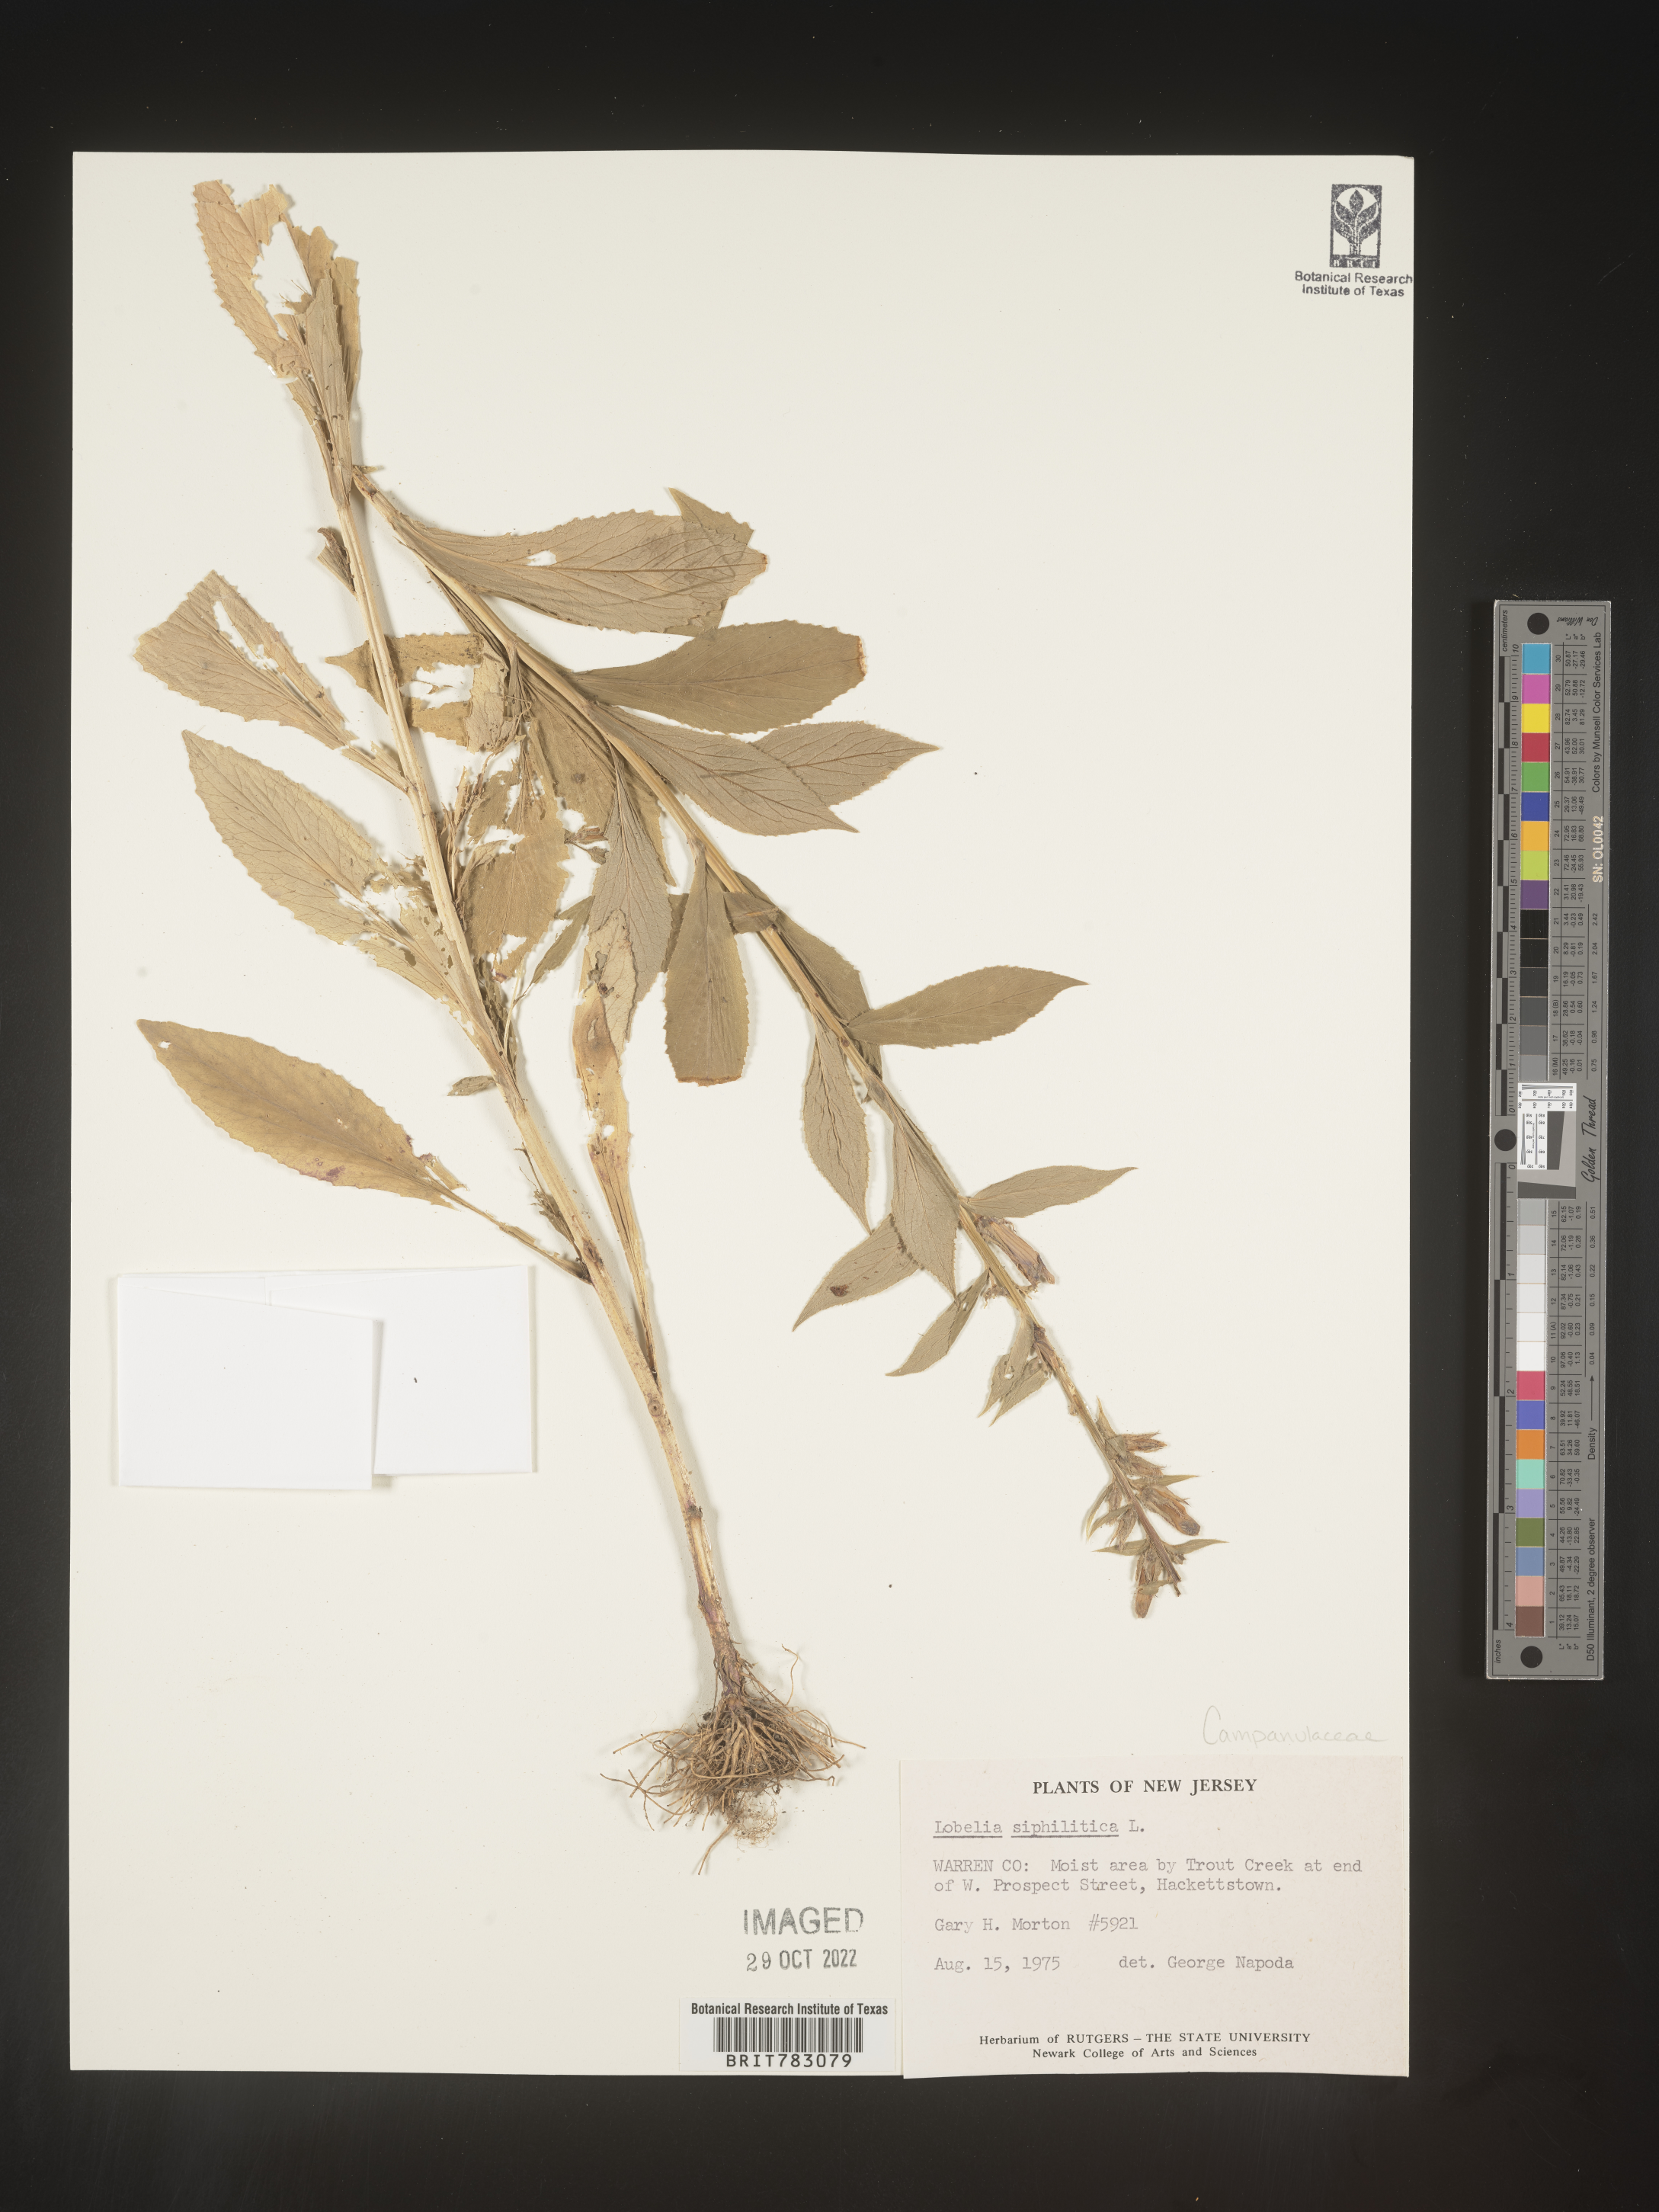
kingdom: Plantae
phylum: Tracheophyta
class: Magnoliopsida
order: Asterales
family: Campanulaceae
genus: Lobelia
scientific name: Lobelia siphilitica
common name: Great lobelia
